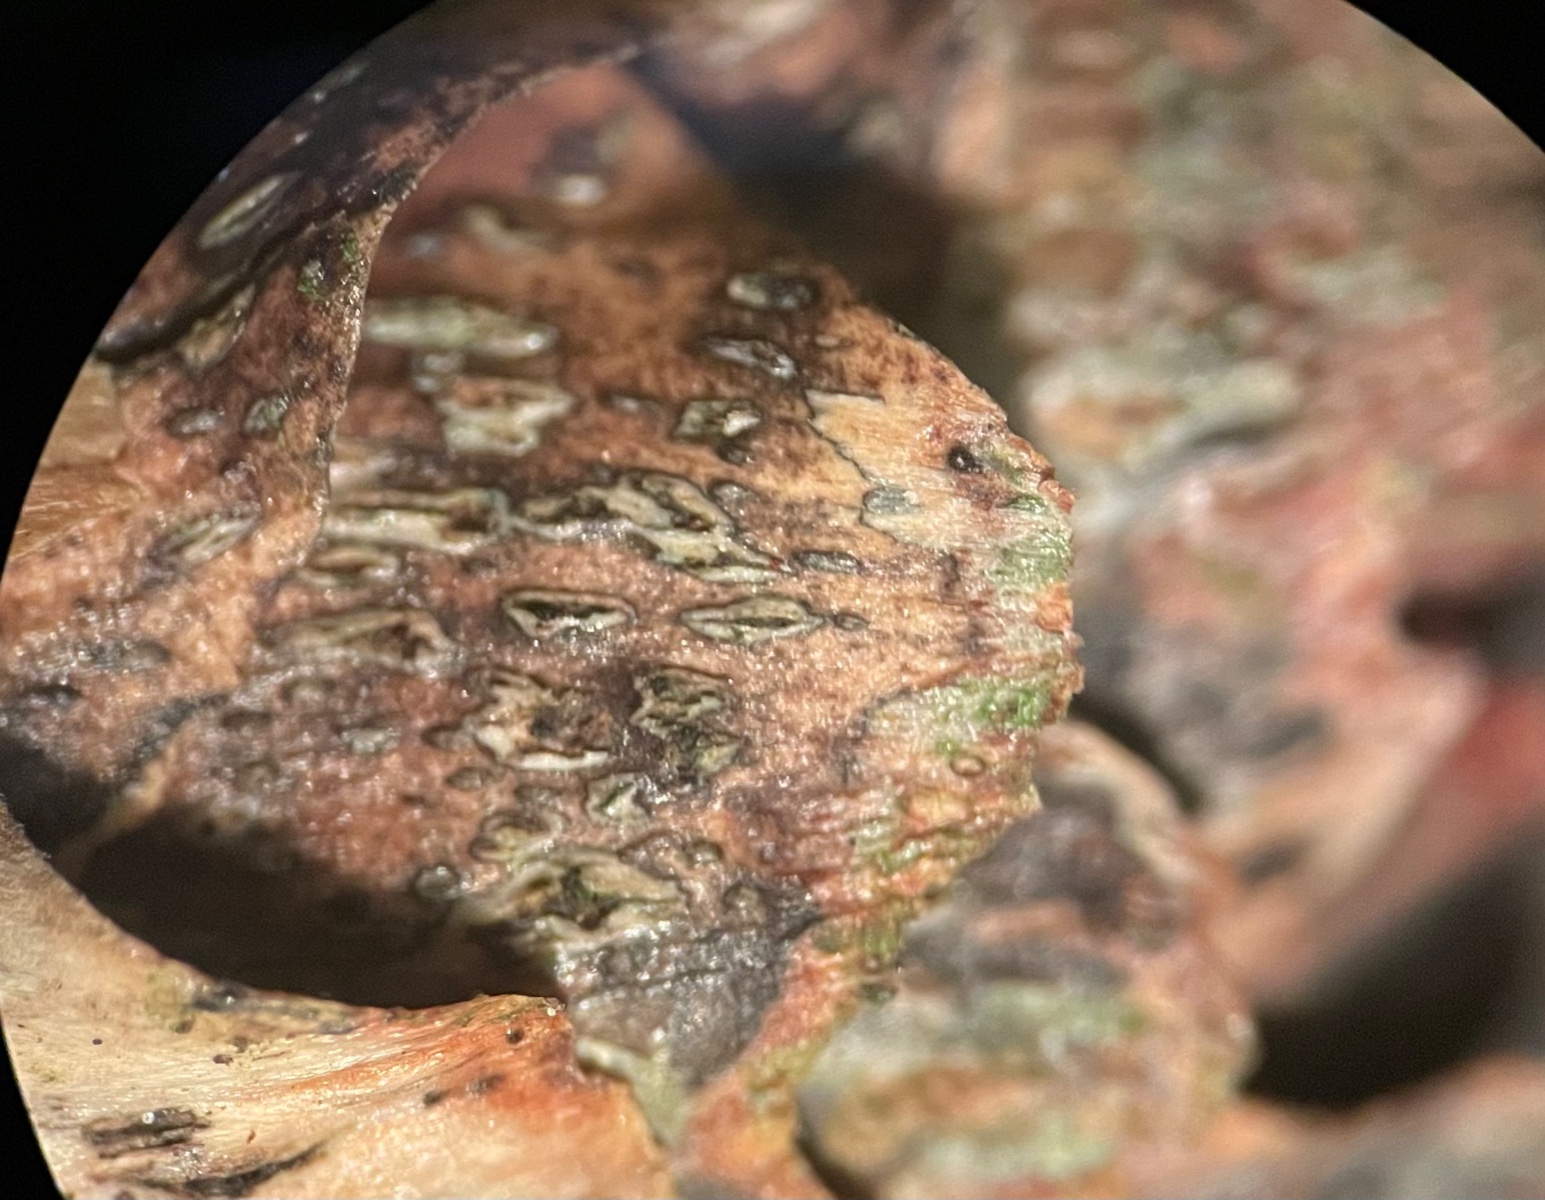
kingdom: Fungi
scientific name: Fungi
